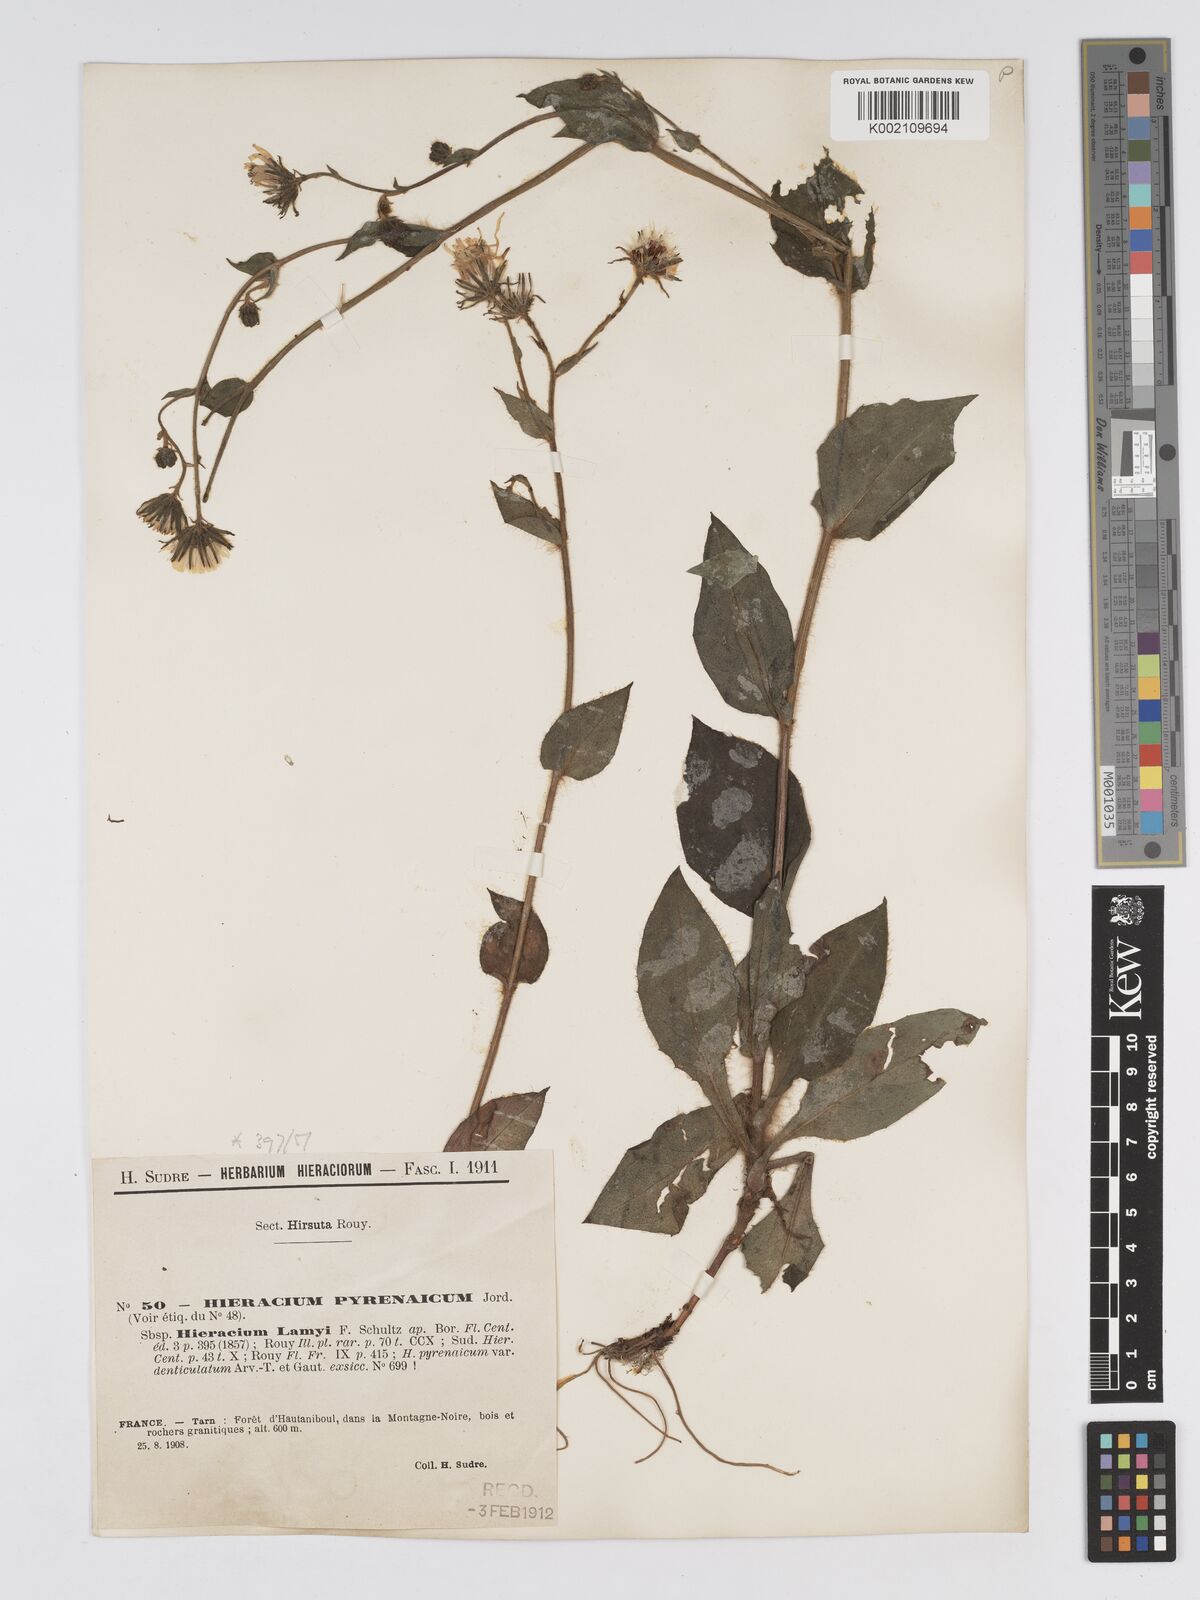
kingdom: Plantae
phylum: Tracheophyta
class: Magnoliopsida
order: Asterales
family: Asteraceae
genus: Hieracium
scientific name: Hieracium nobile
